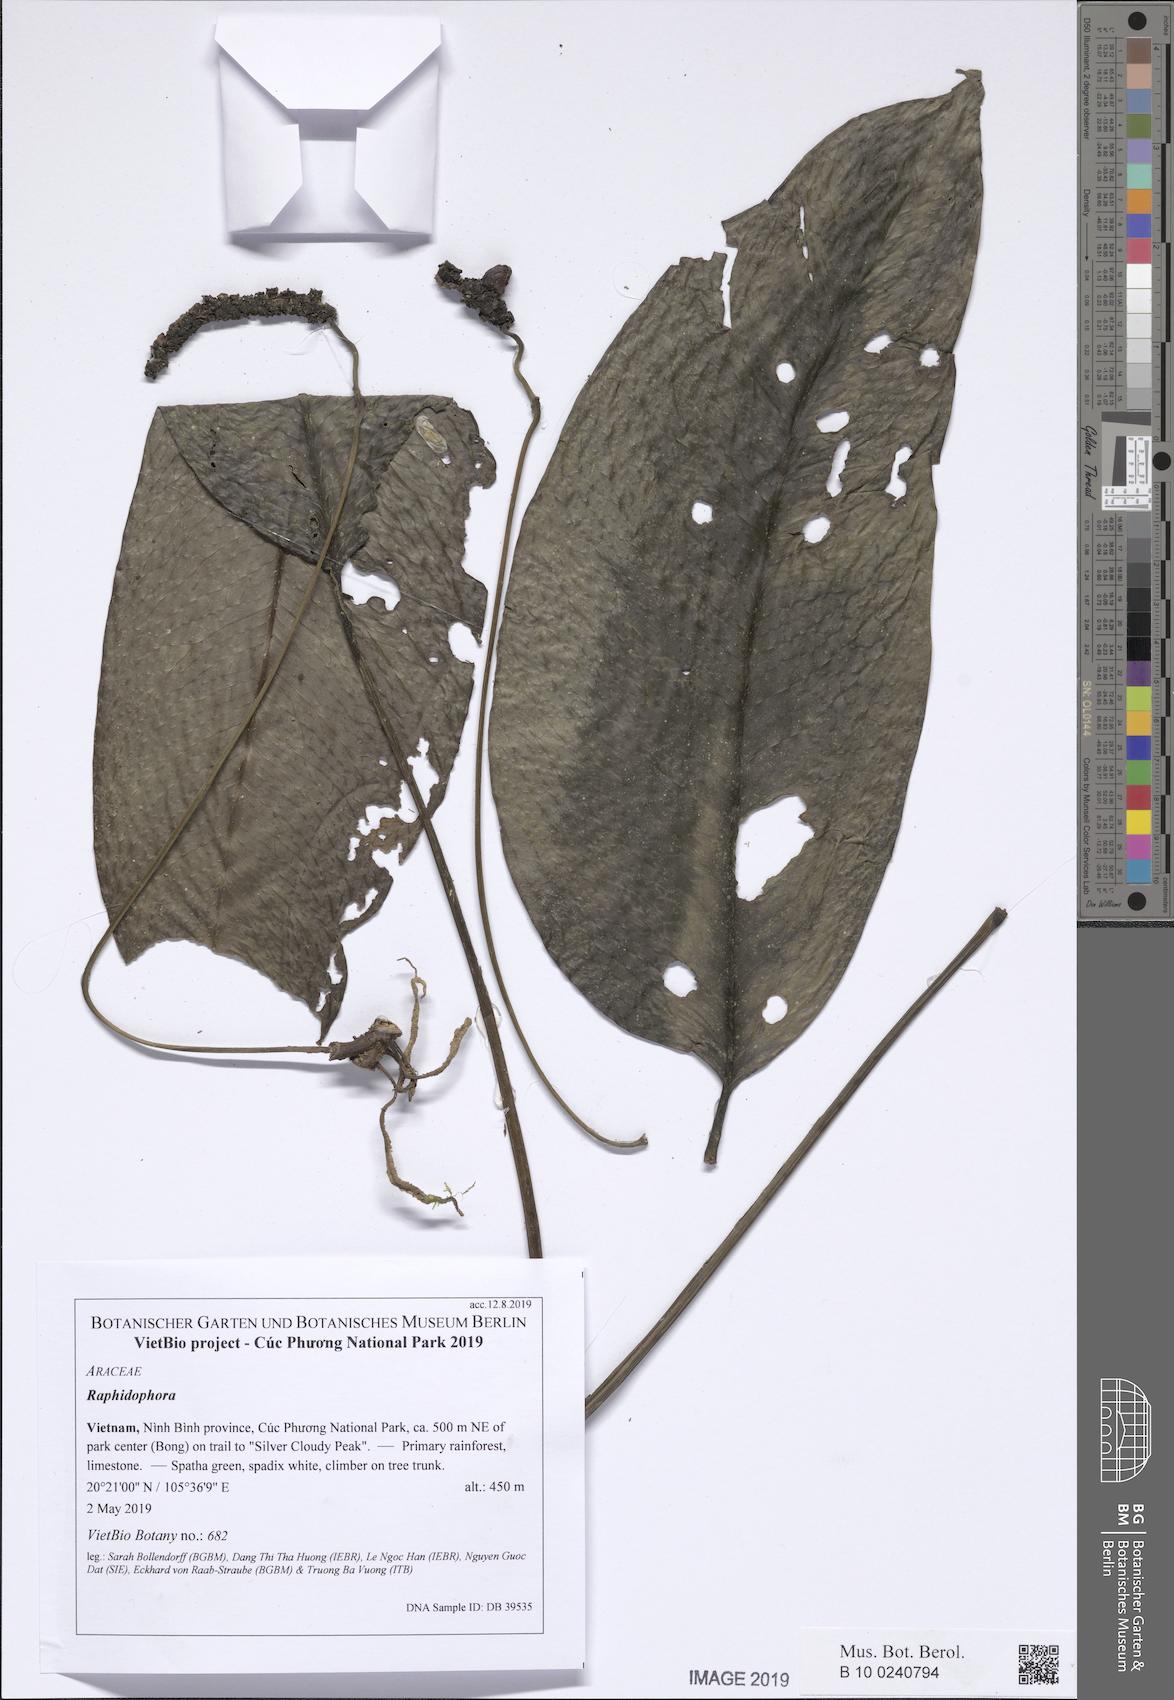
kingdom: Plantae
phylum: Tracheophyta
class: Liliopsida
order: Alismatales
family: Araceae
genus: Anadendrum
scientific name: Anadendrum
